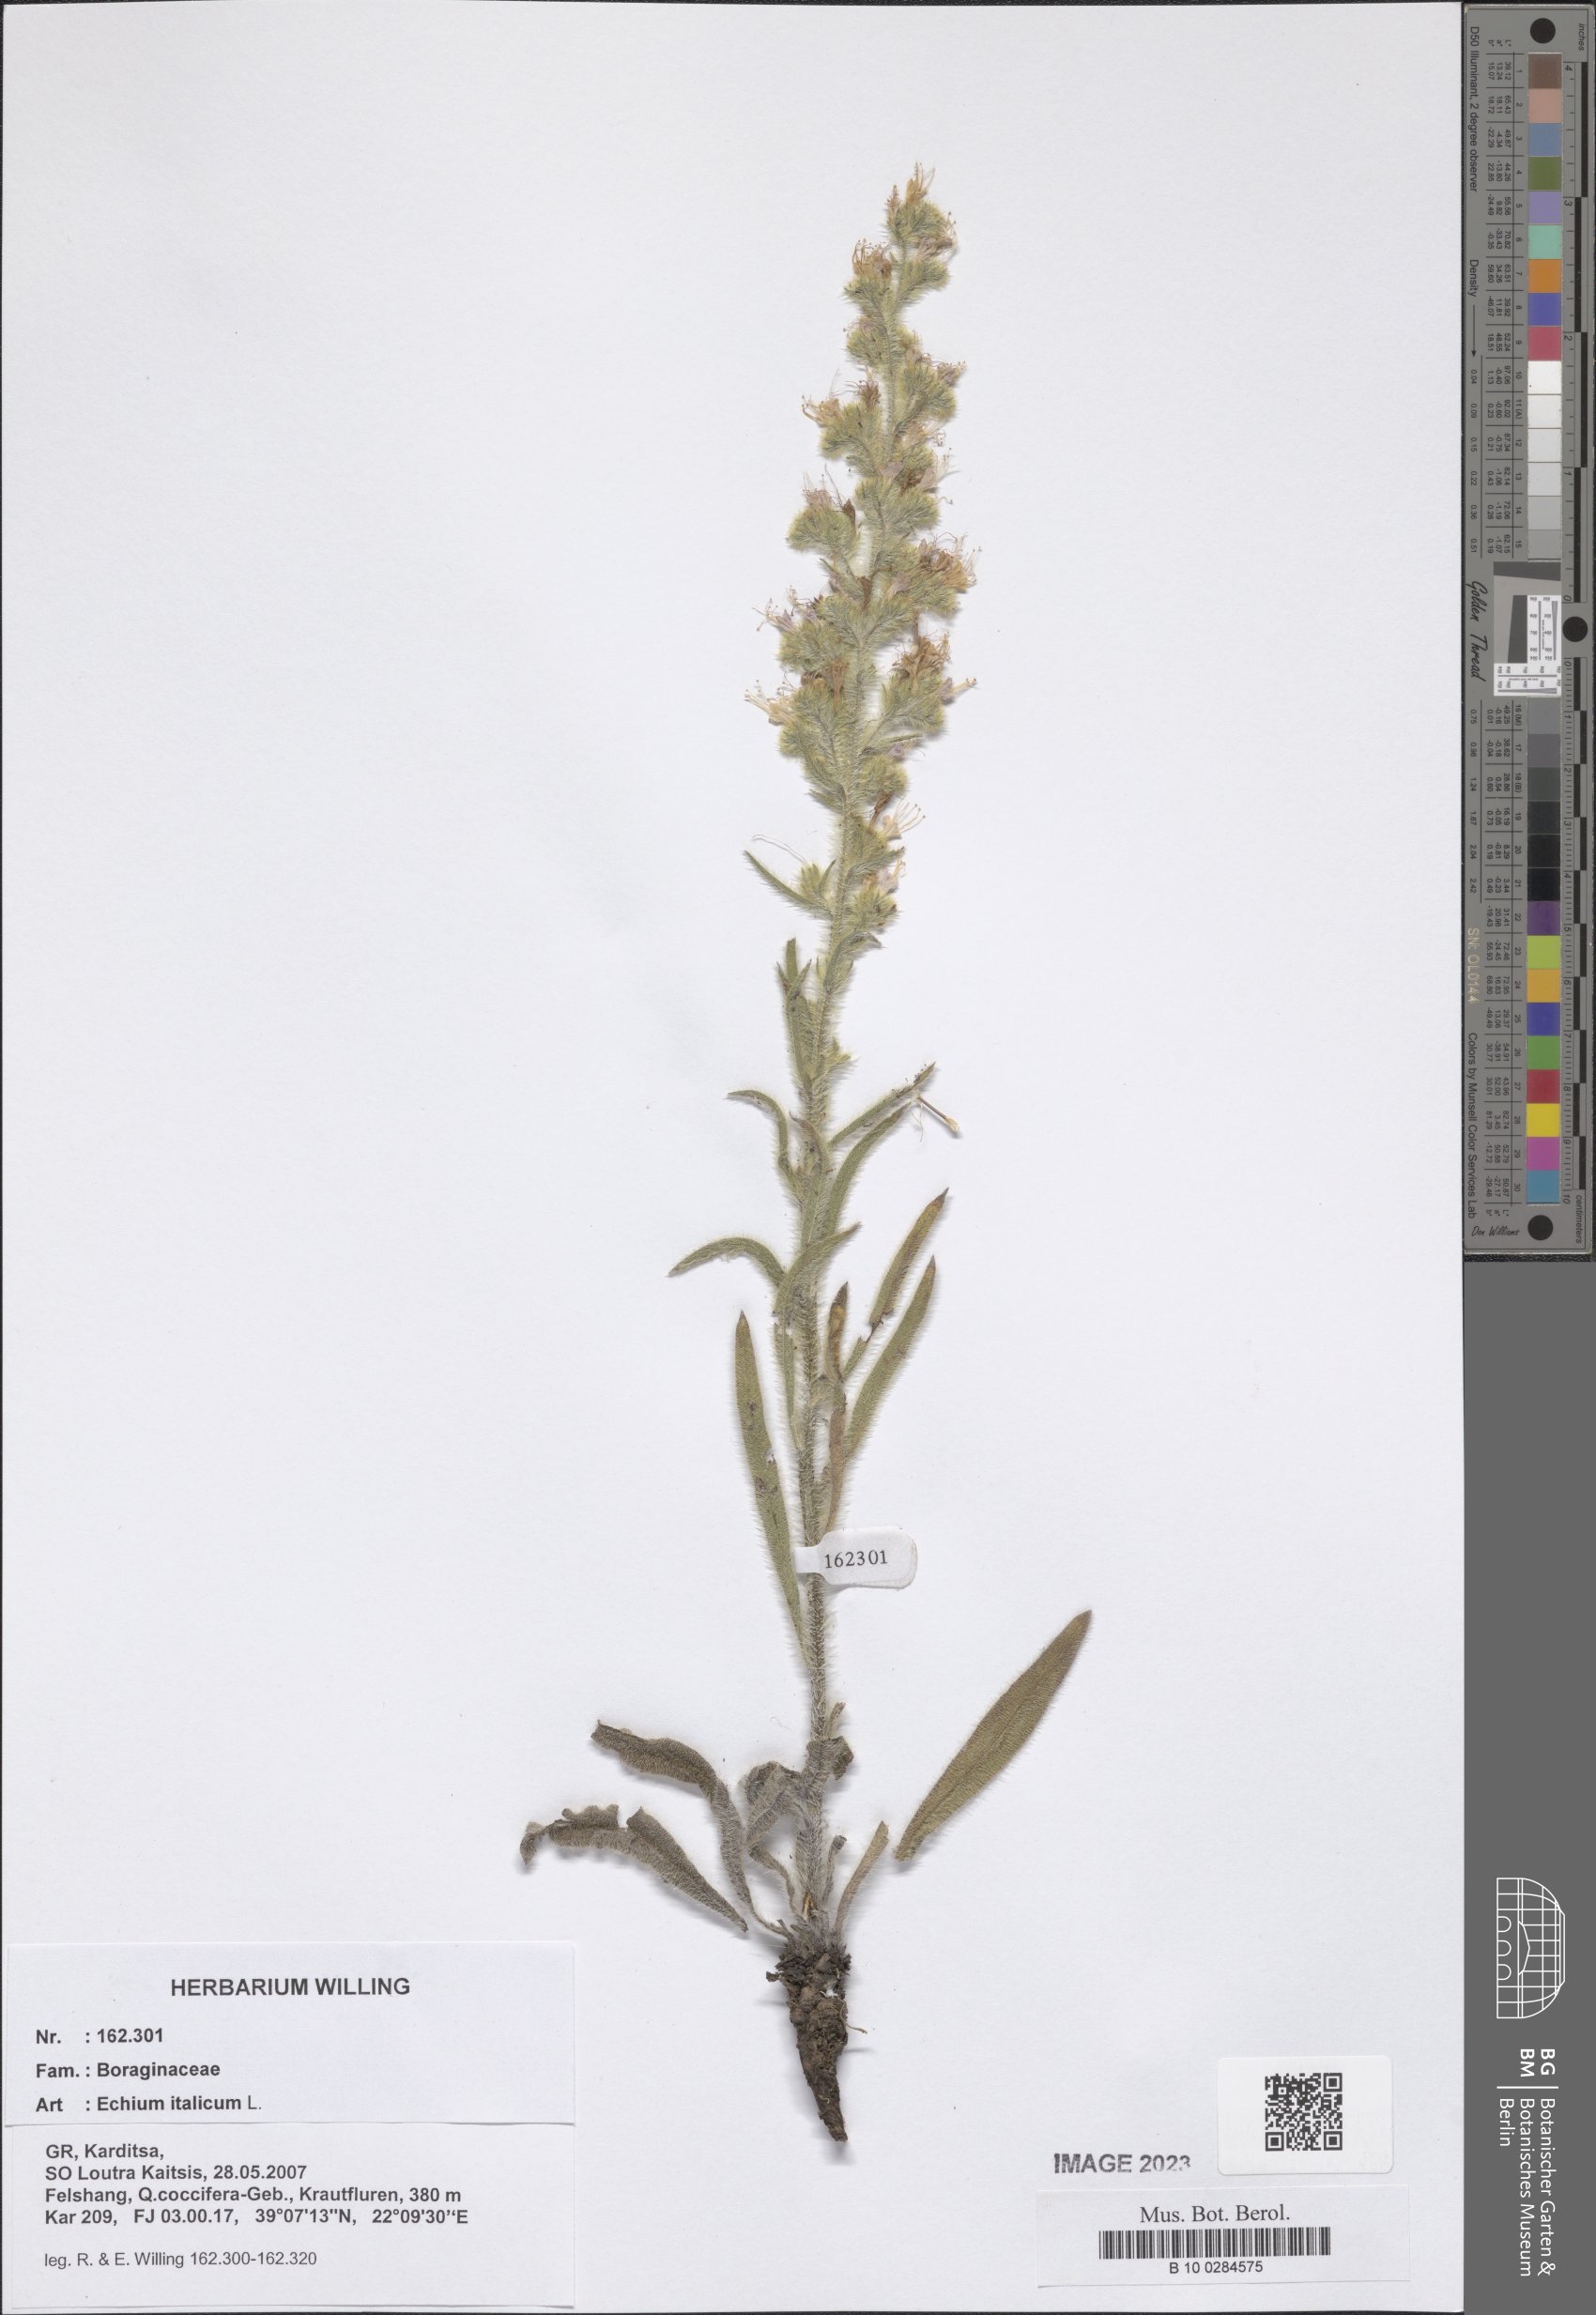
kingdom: Plantae
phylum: Tracheophyta
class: Magnoliopsida
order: Boraginales
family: Boraginaceae
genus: Echium
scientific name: Echium italicum
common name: Italian viper's bugloss
